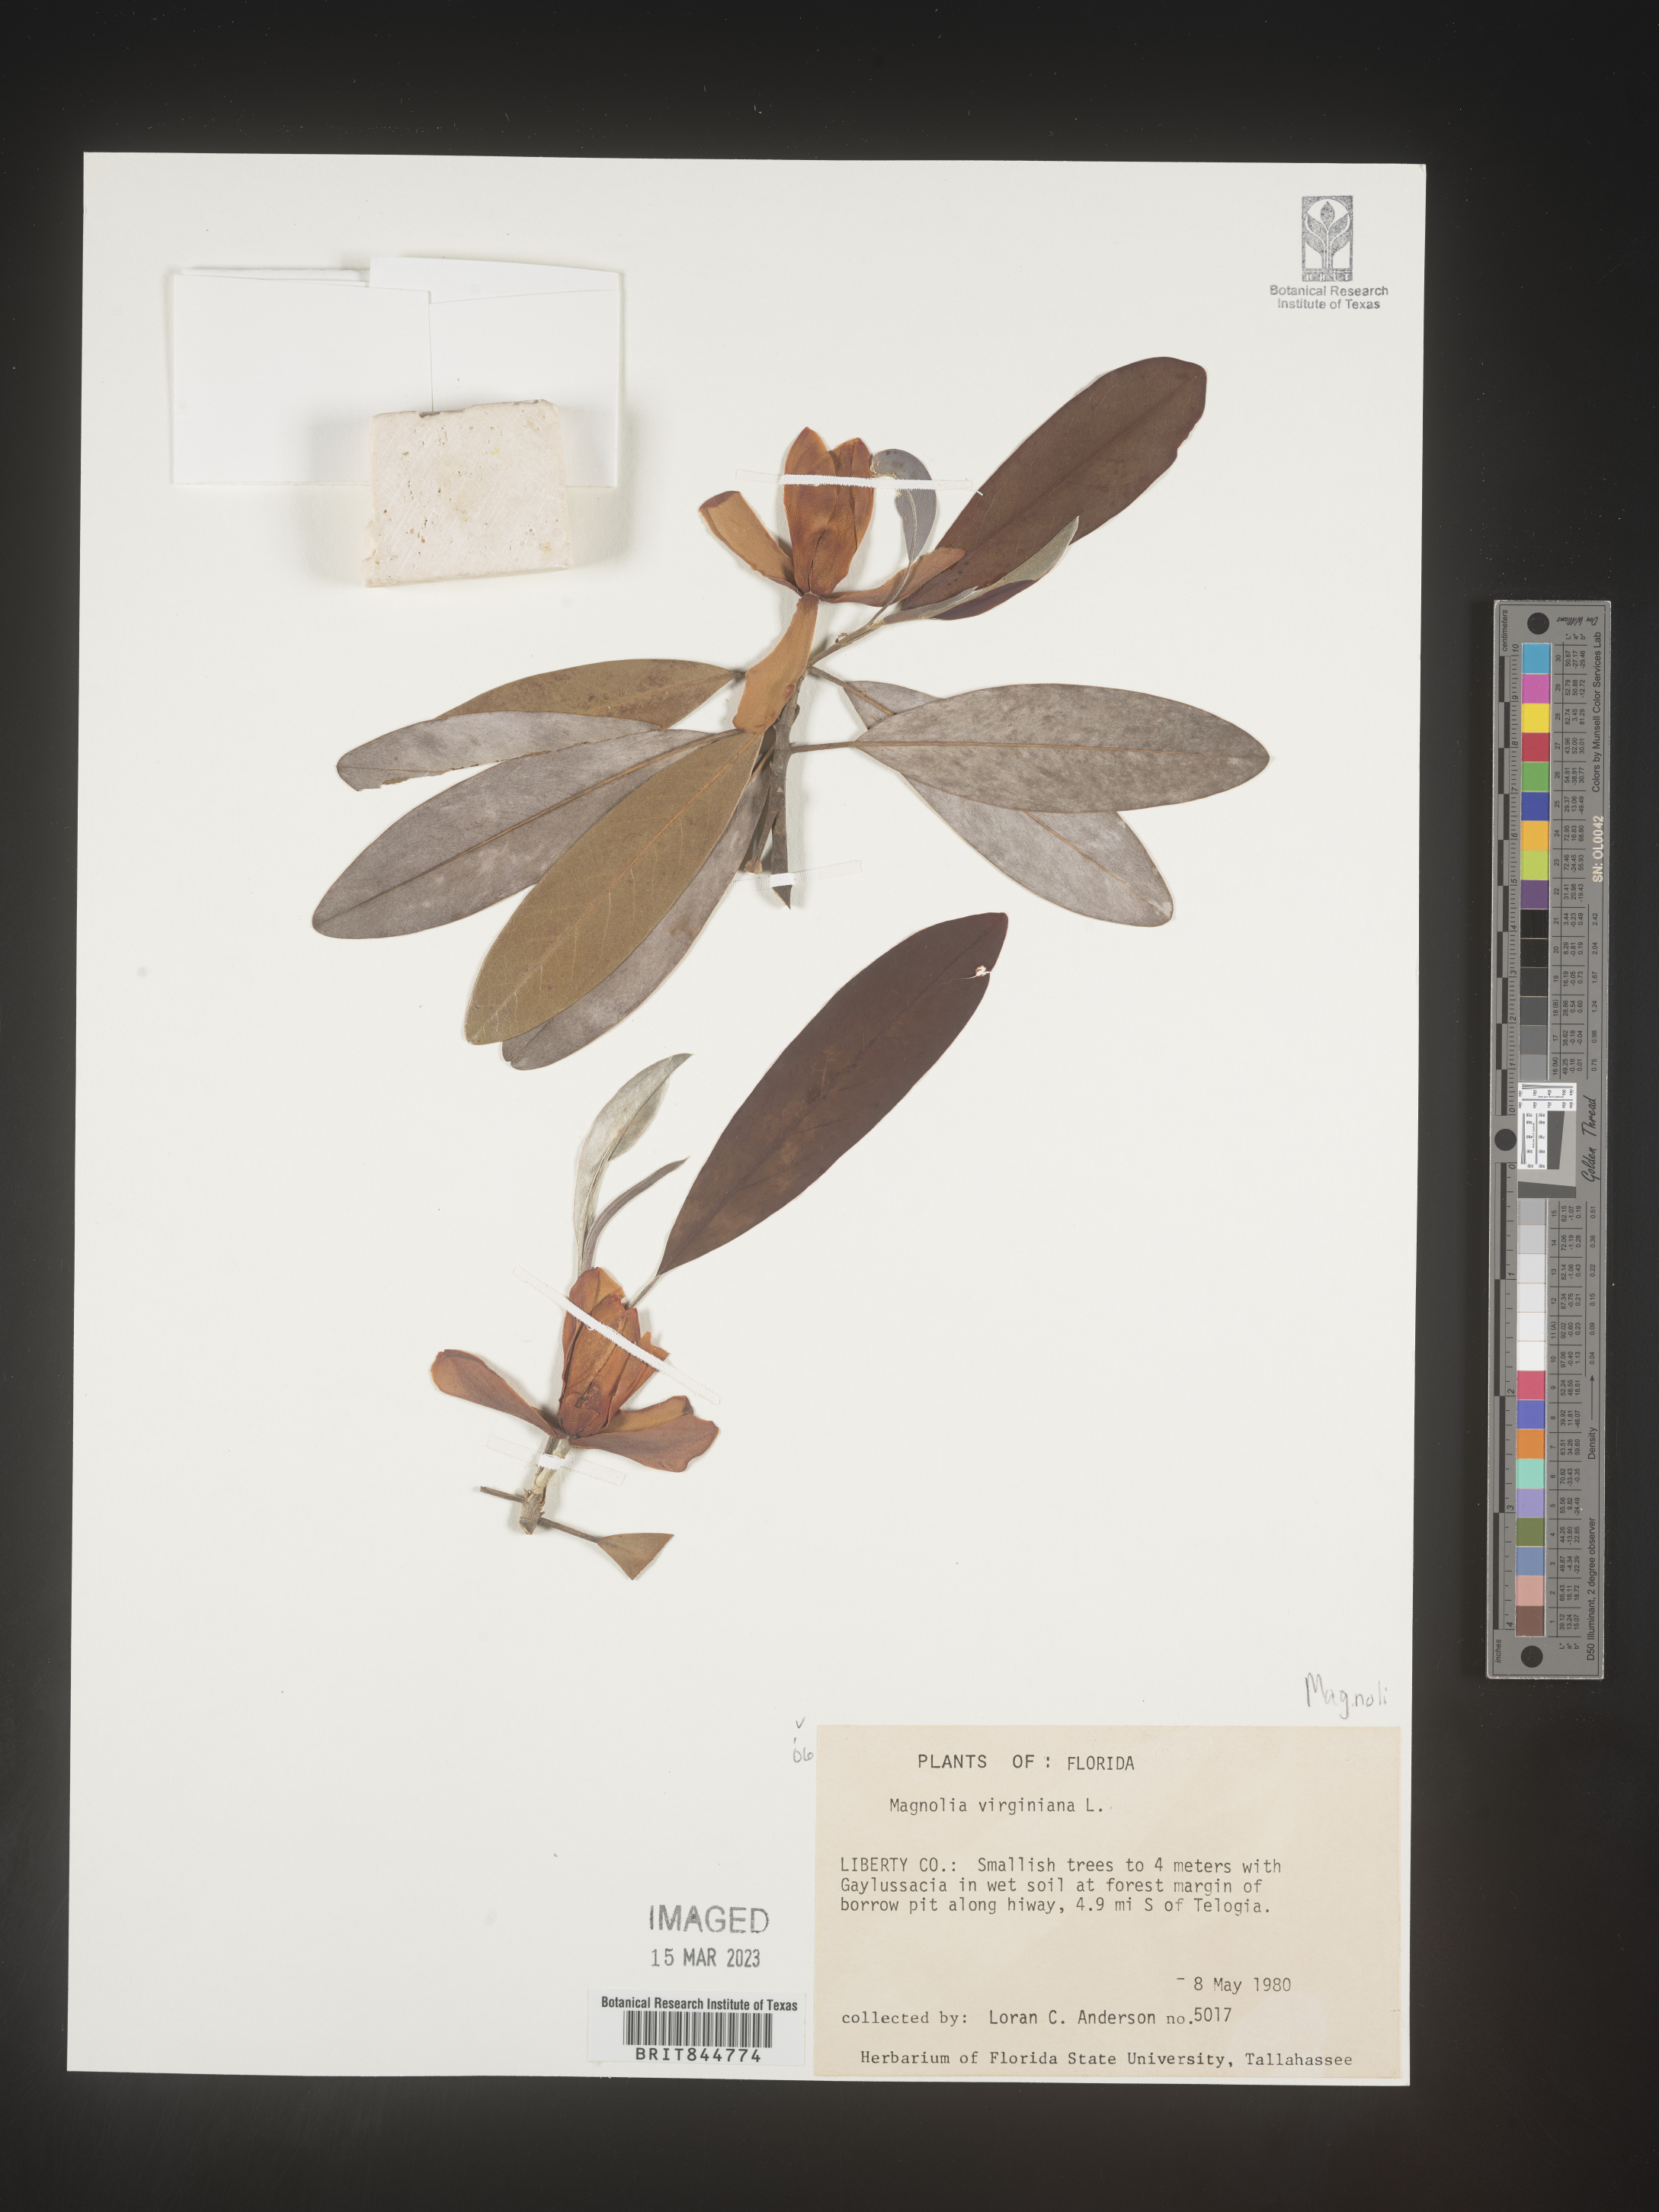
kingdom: Plantae
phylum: Tracheophyta
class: Magnoliopsida
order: Magnoliales
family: Magnoliaceae
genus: Magnolia
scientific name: Magnolia virginiana
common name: Swamp bay
